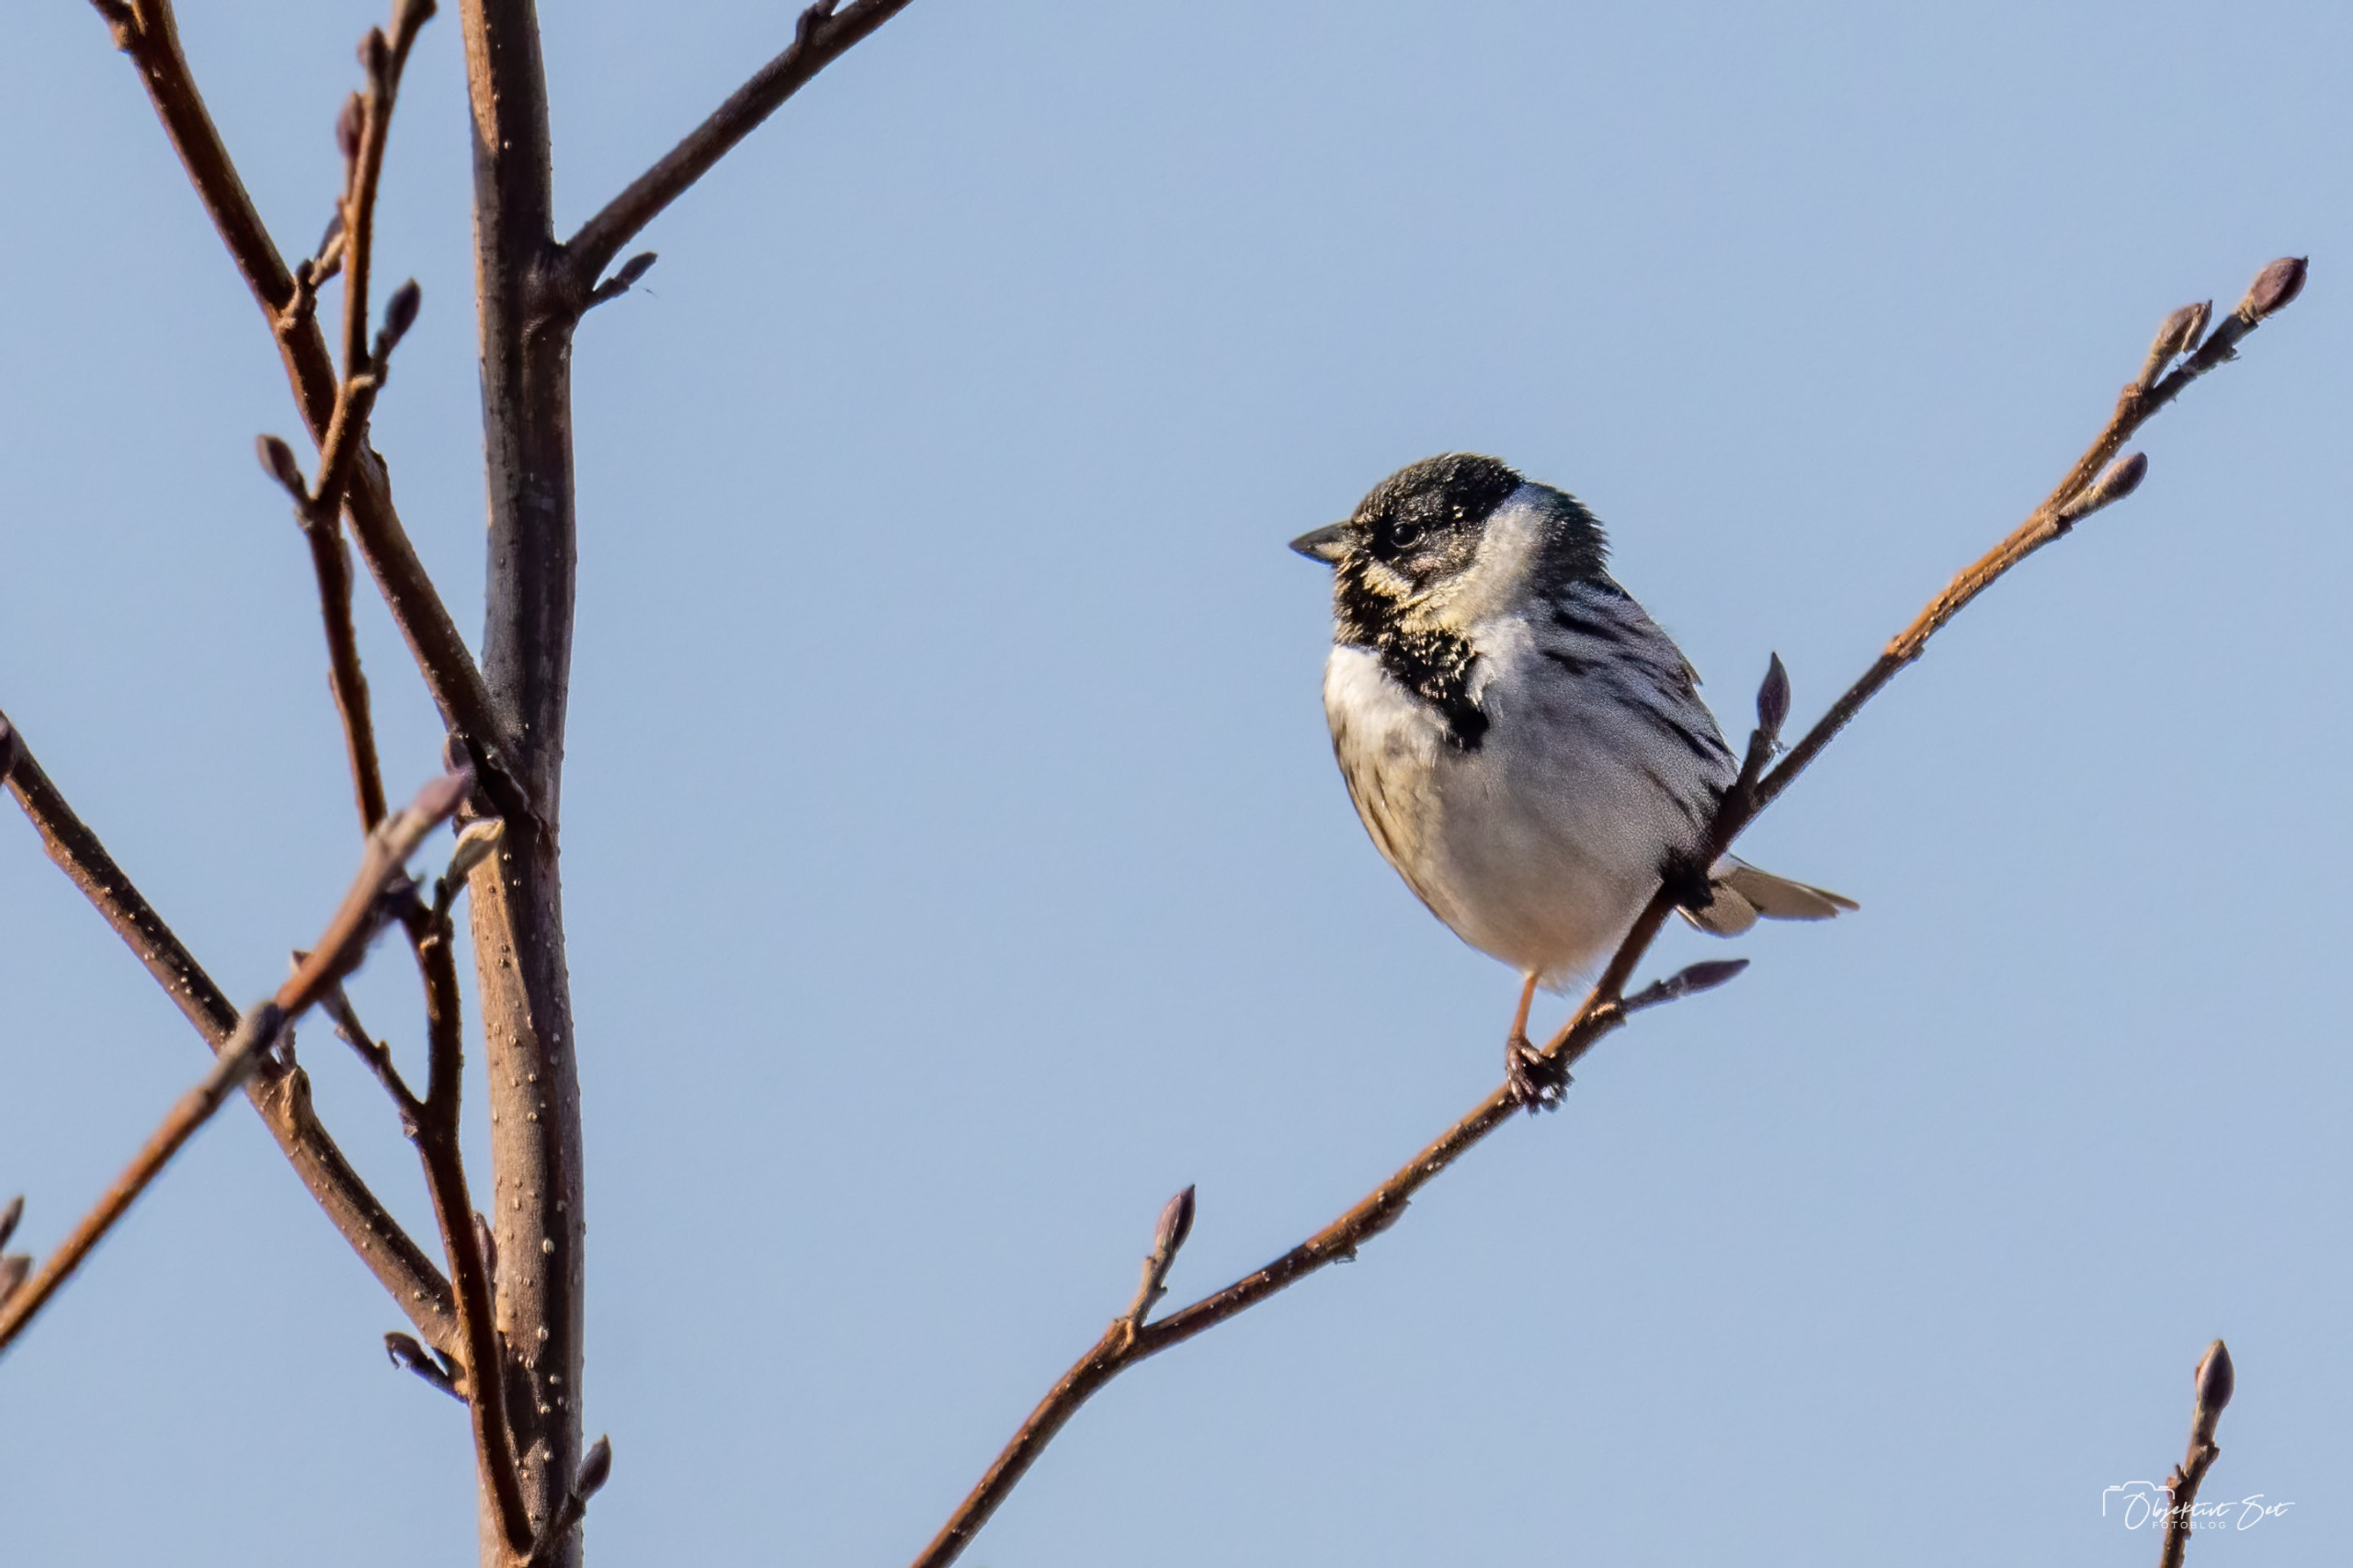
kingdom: Animalia
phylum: Chordata
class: Aves
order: Passeriformes
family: Emberizidae
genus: Emberiza
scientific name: Emberiza schoeniclus
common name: Rørspurv
